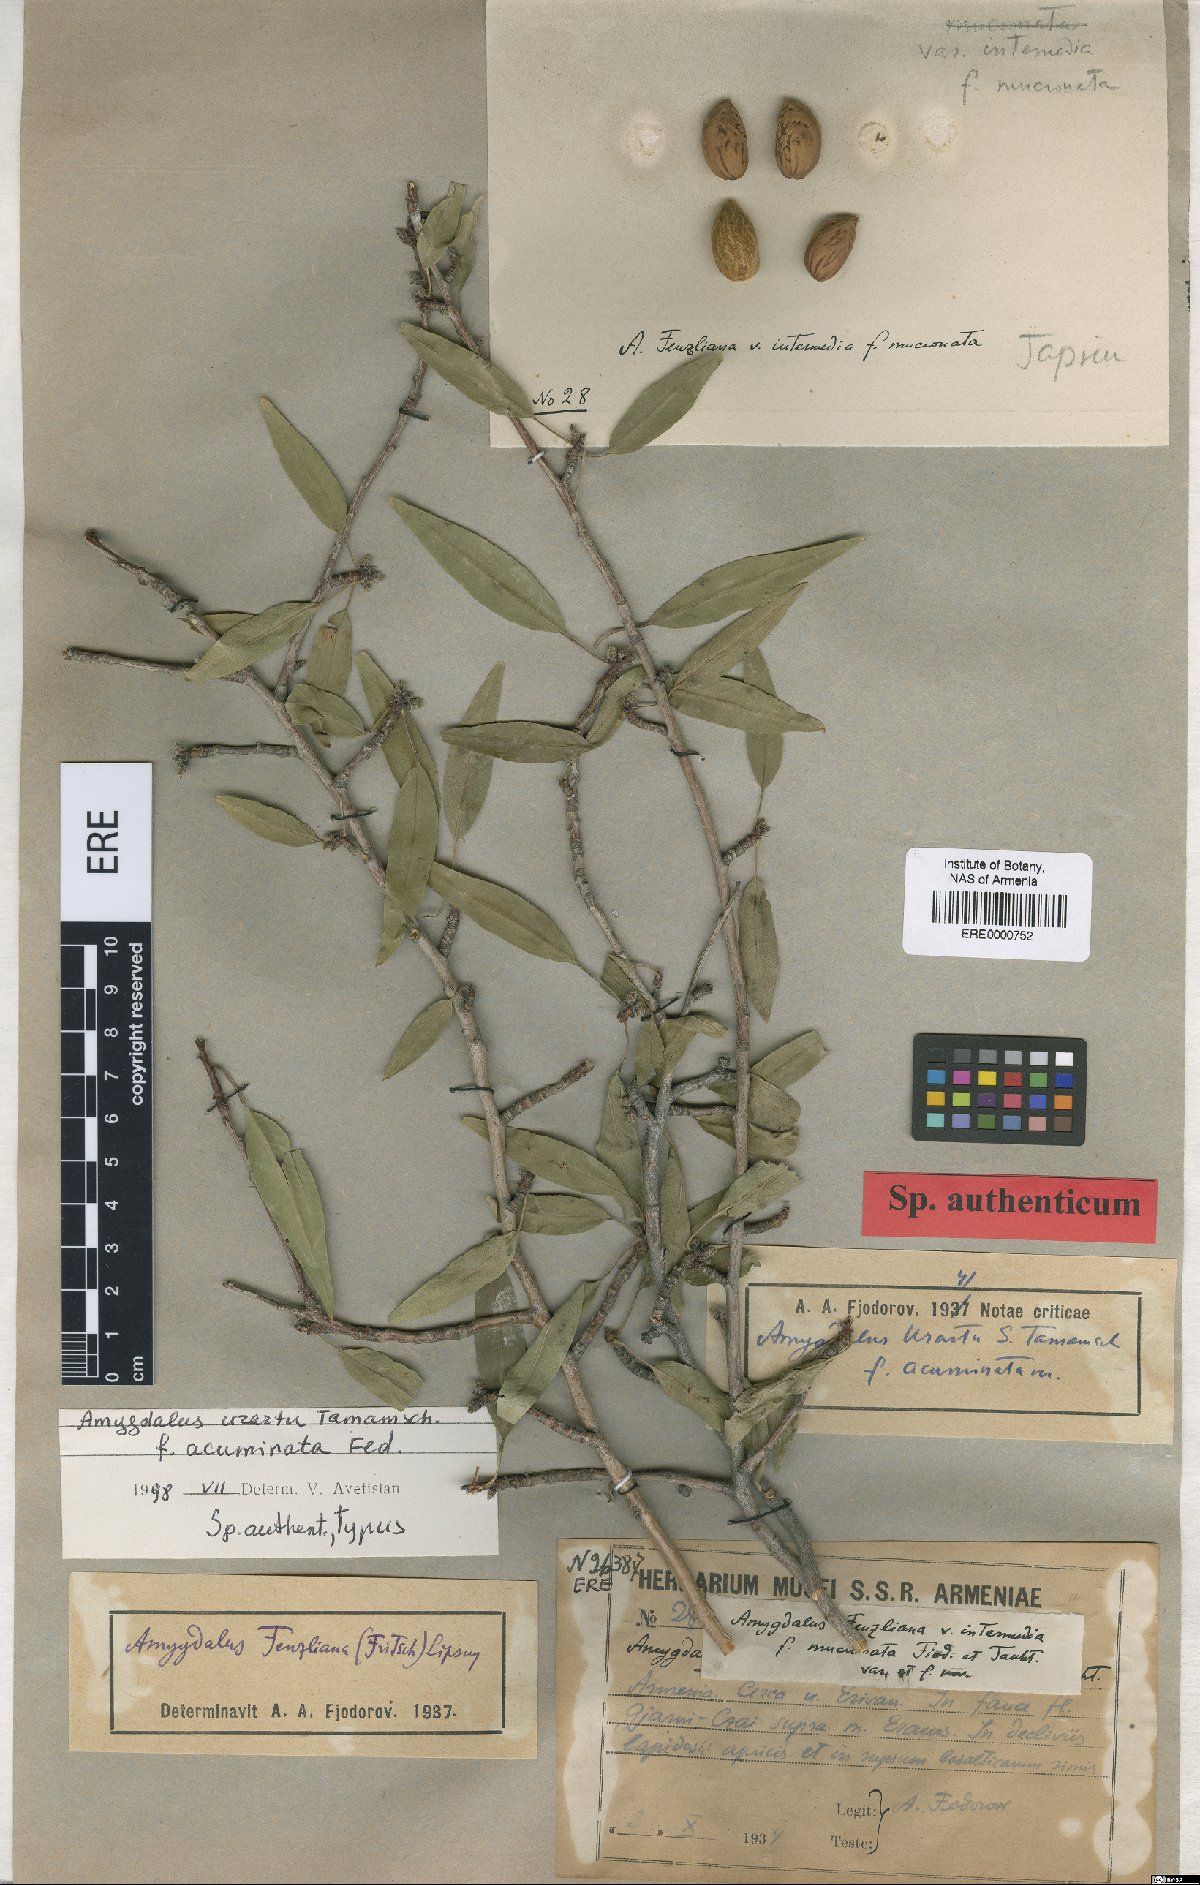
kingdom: Plantae
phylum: Tracheophyta
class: Magnoliopsida
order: Rosales
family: Rosaceae
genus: Prunus
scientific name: Prunus urartu
